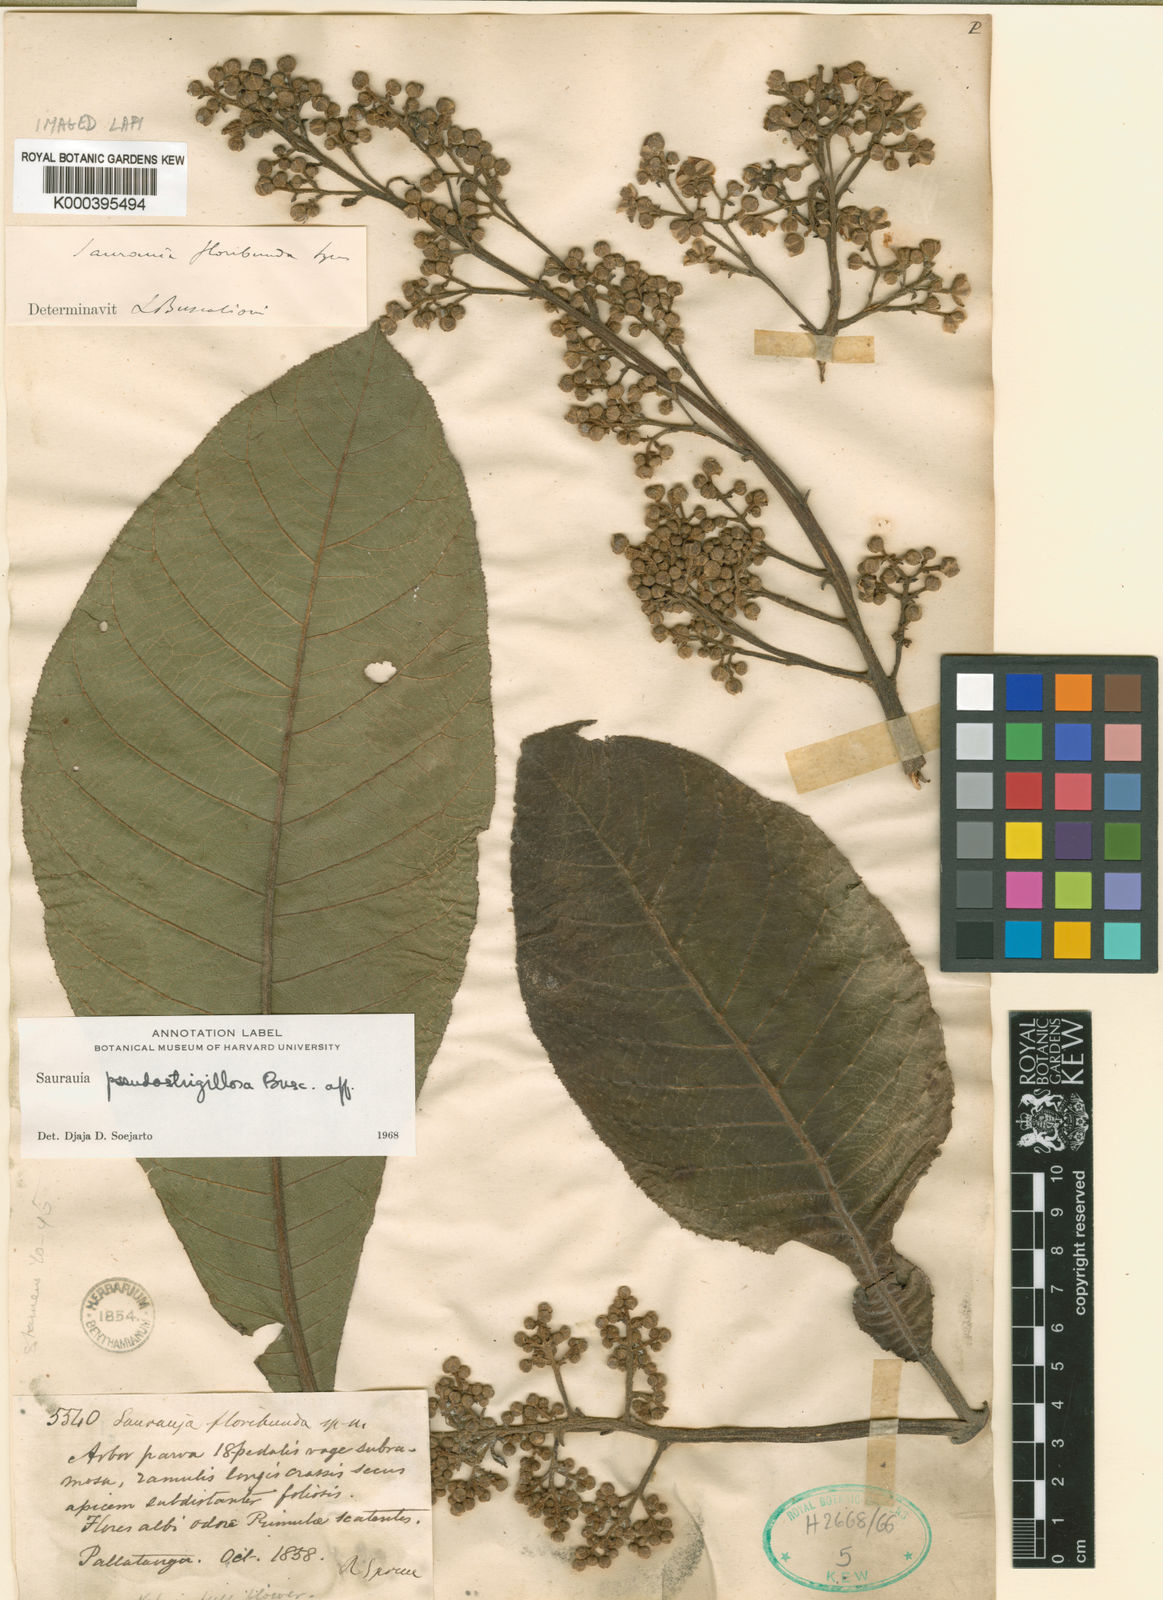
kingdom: Plantae
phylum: Tracheophyta
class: Magnoliopsida
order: Ericales
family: Actinidiaceae
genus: Saurauia
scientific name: Saurauia pseudostrigillosa
